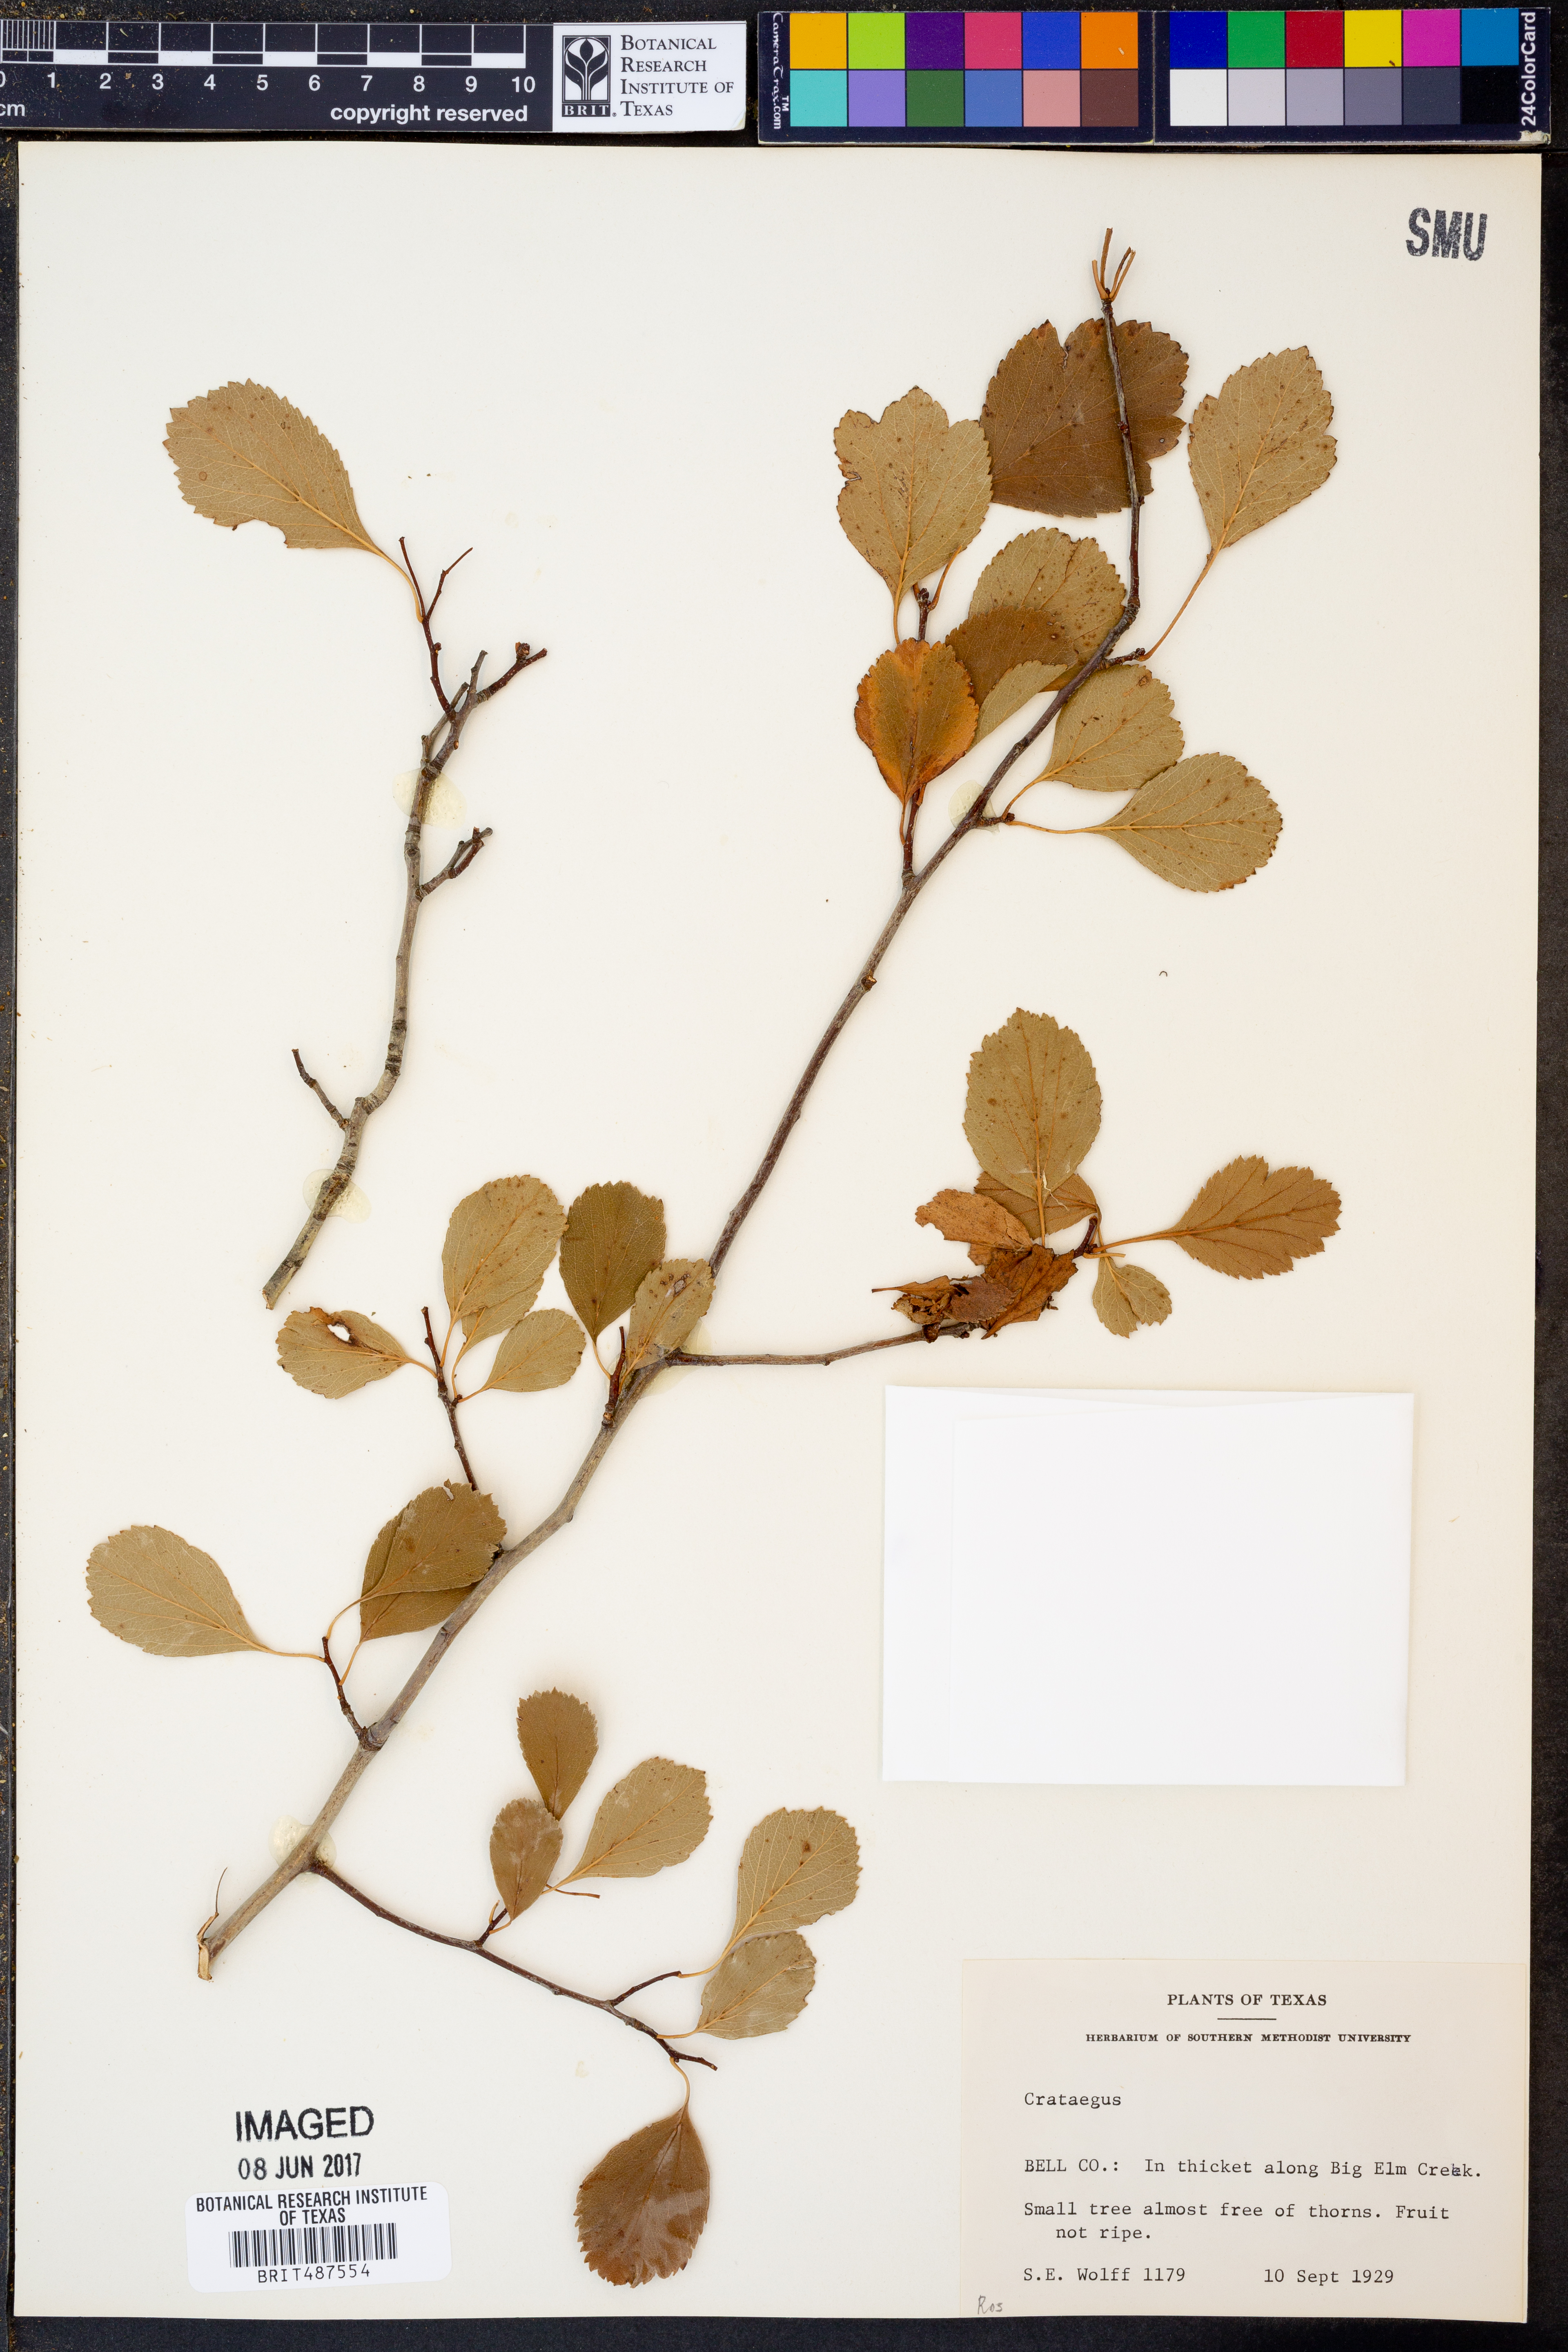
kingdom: Plantae
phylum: Tracheophyta
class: Magnoliopsida
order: Rosales
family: Rosaceae
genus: Crataegus
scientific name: Crataegus
